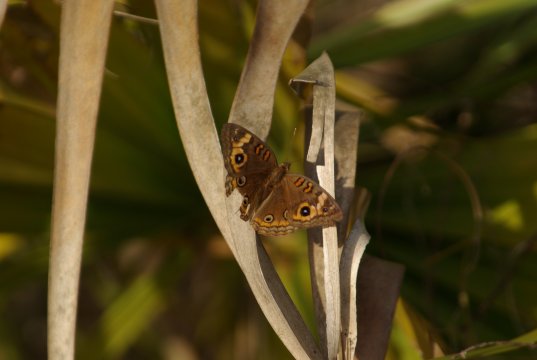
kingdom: Animalia
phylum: Arthropoda
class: Insecta
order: Lepidoptera
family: Nymphalidae
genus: Junonia
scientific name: Junonia evarete
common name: Mangrove Buckeye
